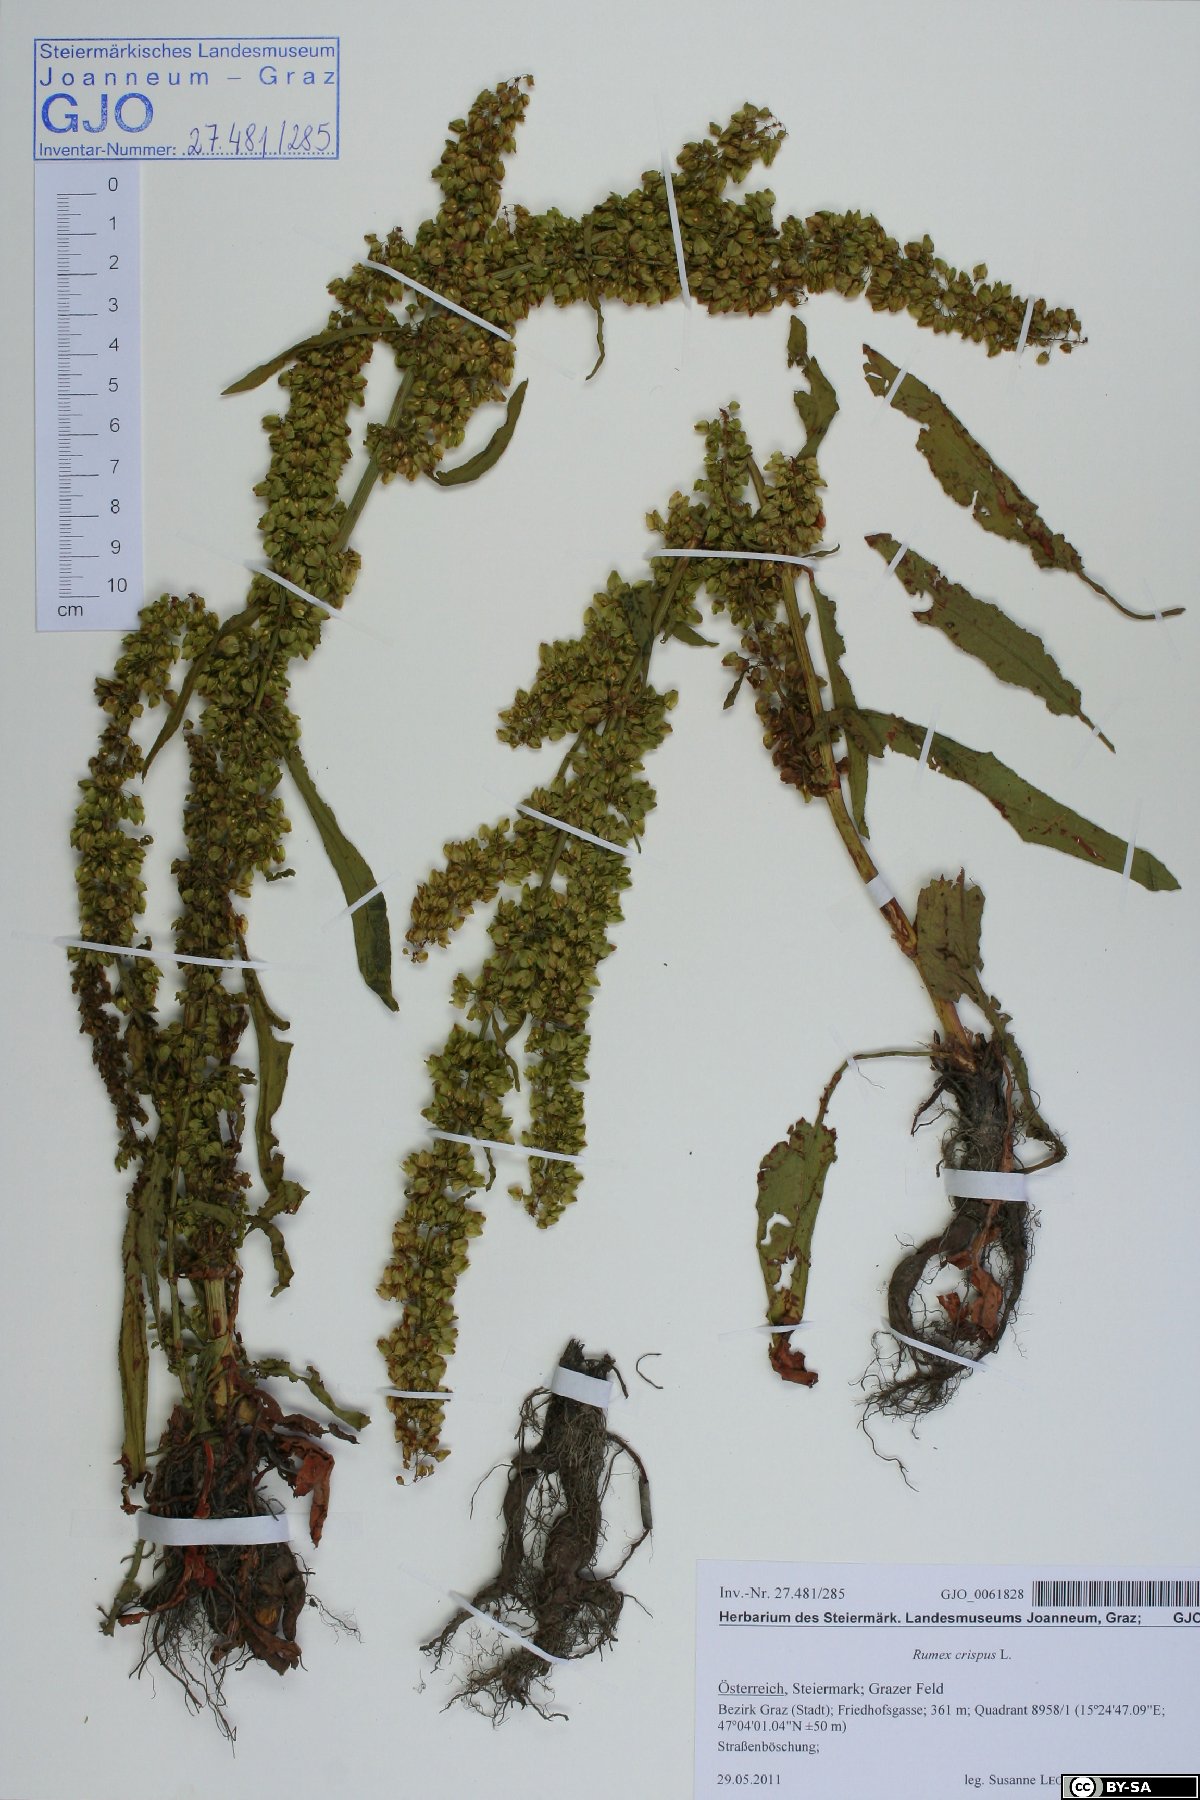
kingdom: Plantae
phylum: Tracheophyta
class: Magnoliopsida
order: Caryophyllales
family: Polygonaceae
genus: Rumex
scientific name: Rumex crispus
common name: Curled dock
